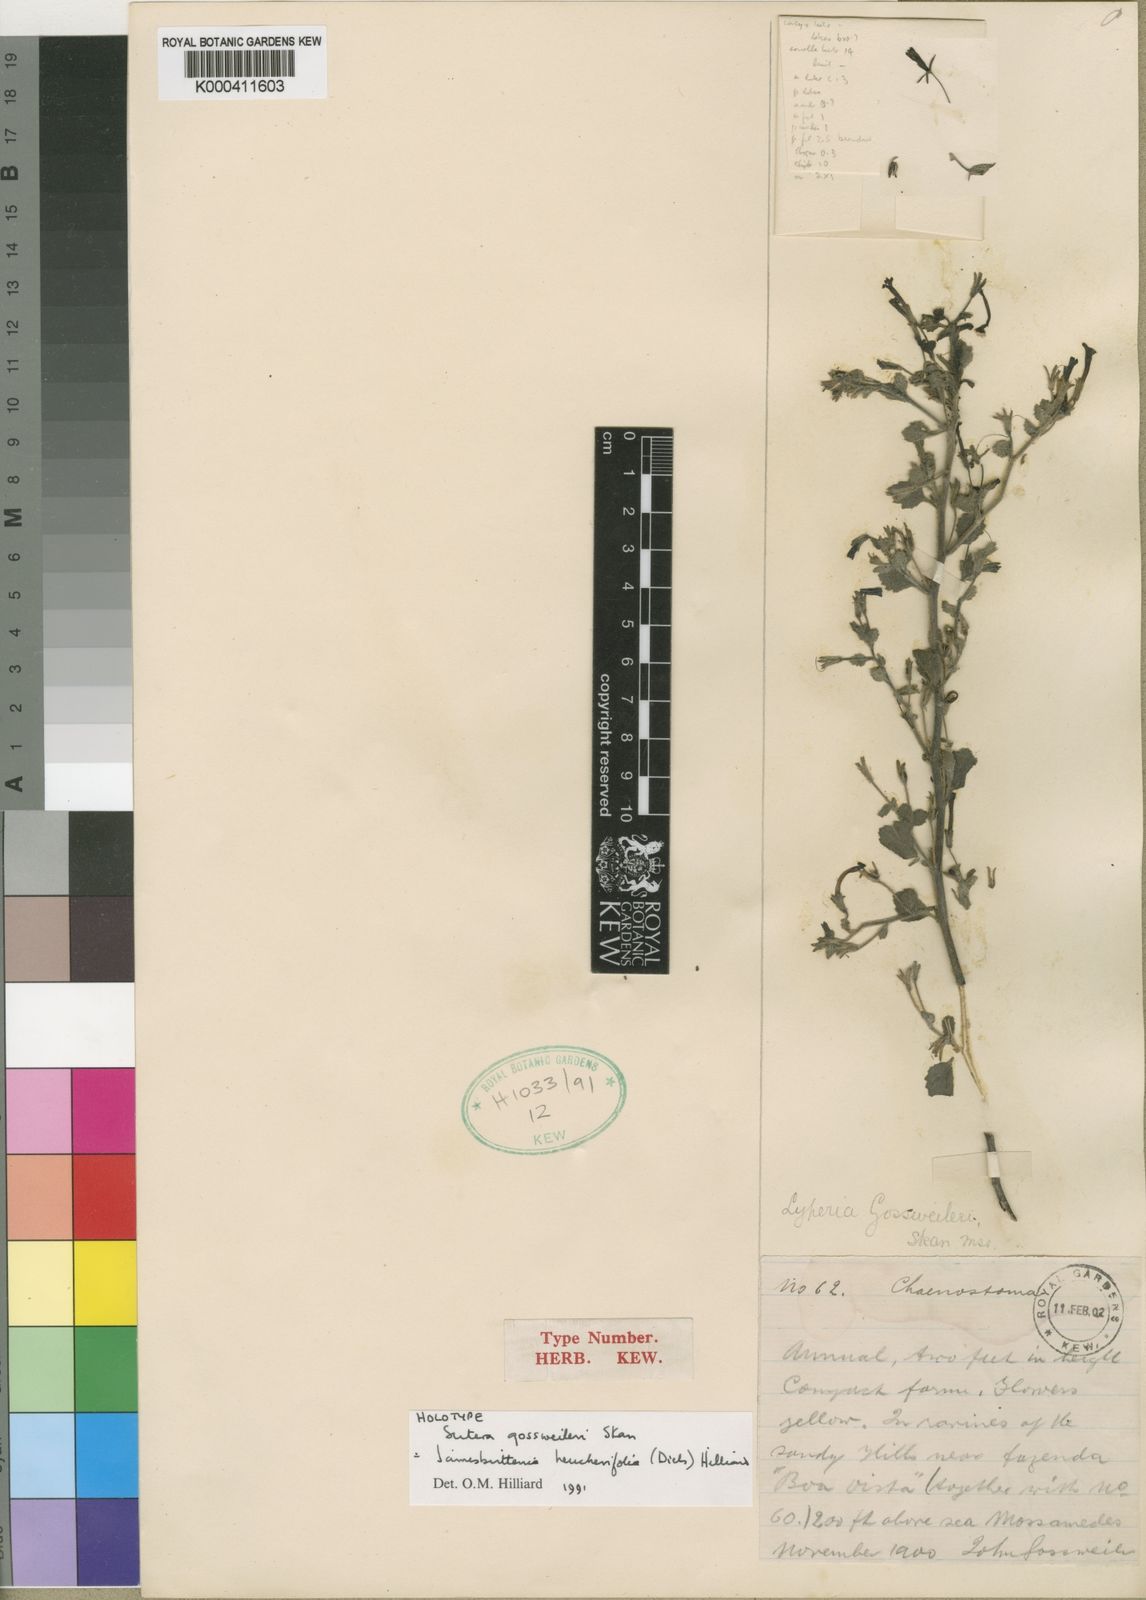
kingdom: Plantae
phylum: Tracheophyta
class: Magnoliopsida
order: Lamiales
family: Scrophulariaceae
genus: Jamesbrittenia
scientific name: Jamesbrittenia heucherifolia
